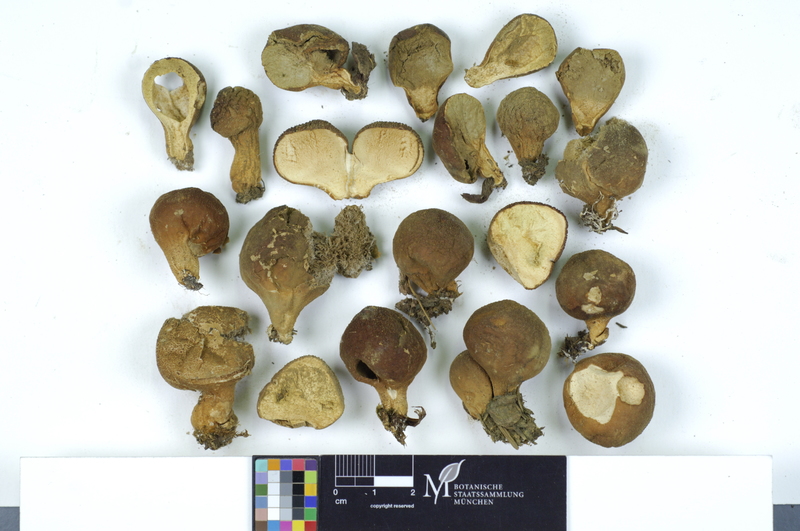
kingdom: Fungi
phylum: Basidiomycota
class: Agaricomycetes
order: Agaricales
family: Lycoperdaceae
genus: Apioperdon
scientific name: Apioperdon pyriforme
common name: Pear-shaped puffball
